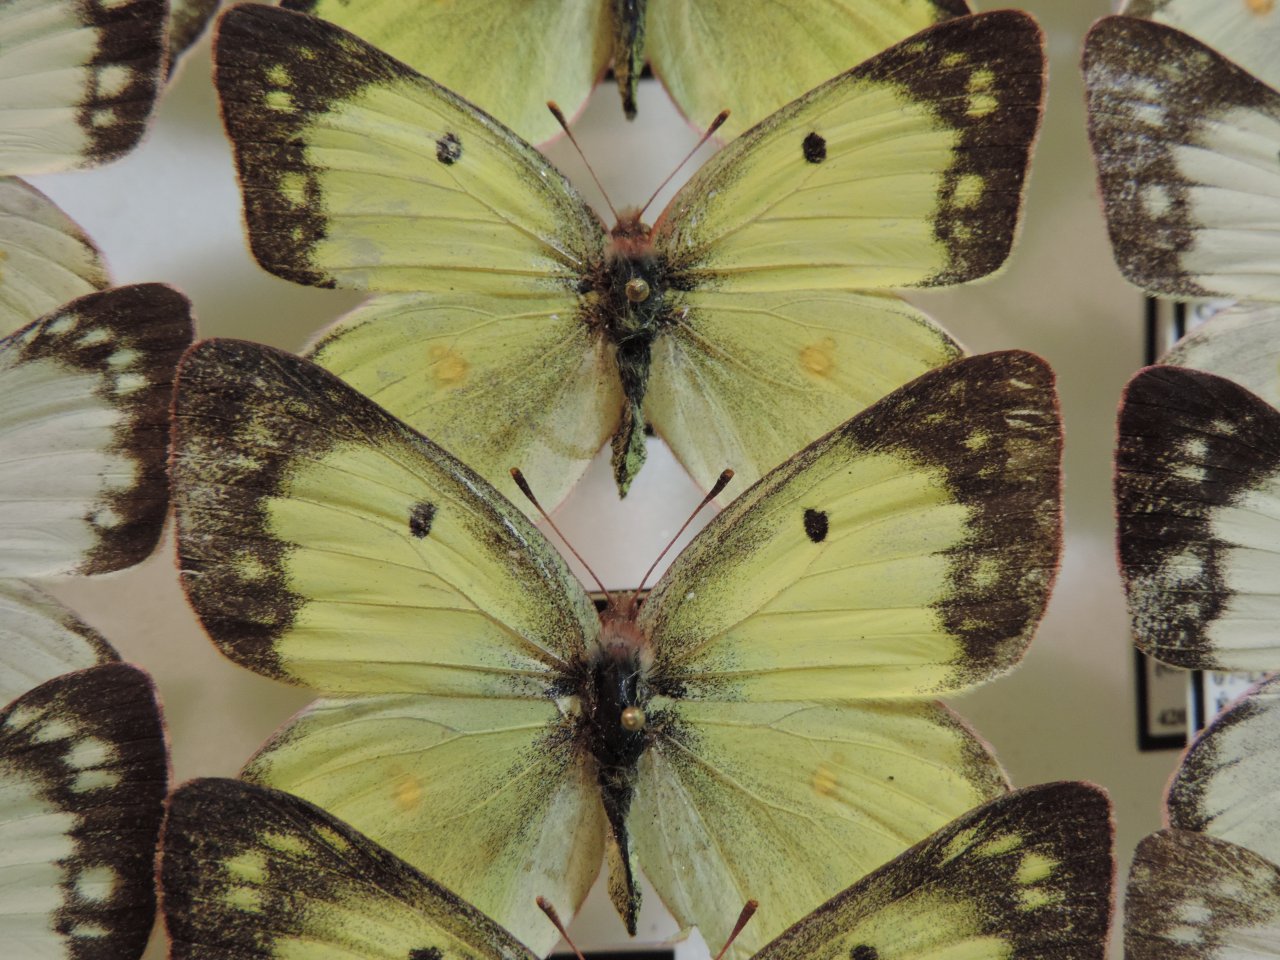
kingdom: Animalia
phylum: Arthropoda
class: Insecta
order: Lepidoptera
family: Pieridae
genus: Colias
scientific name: Colias philodice
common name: Clouded Sulphur
